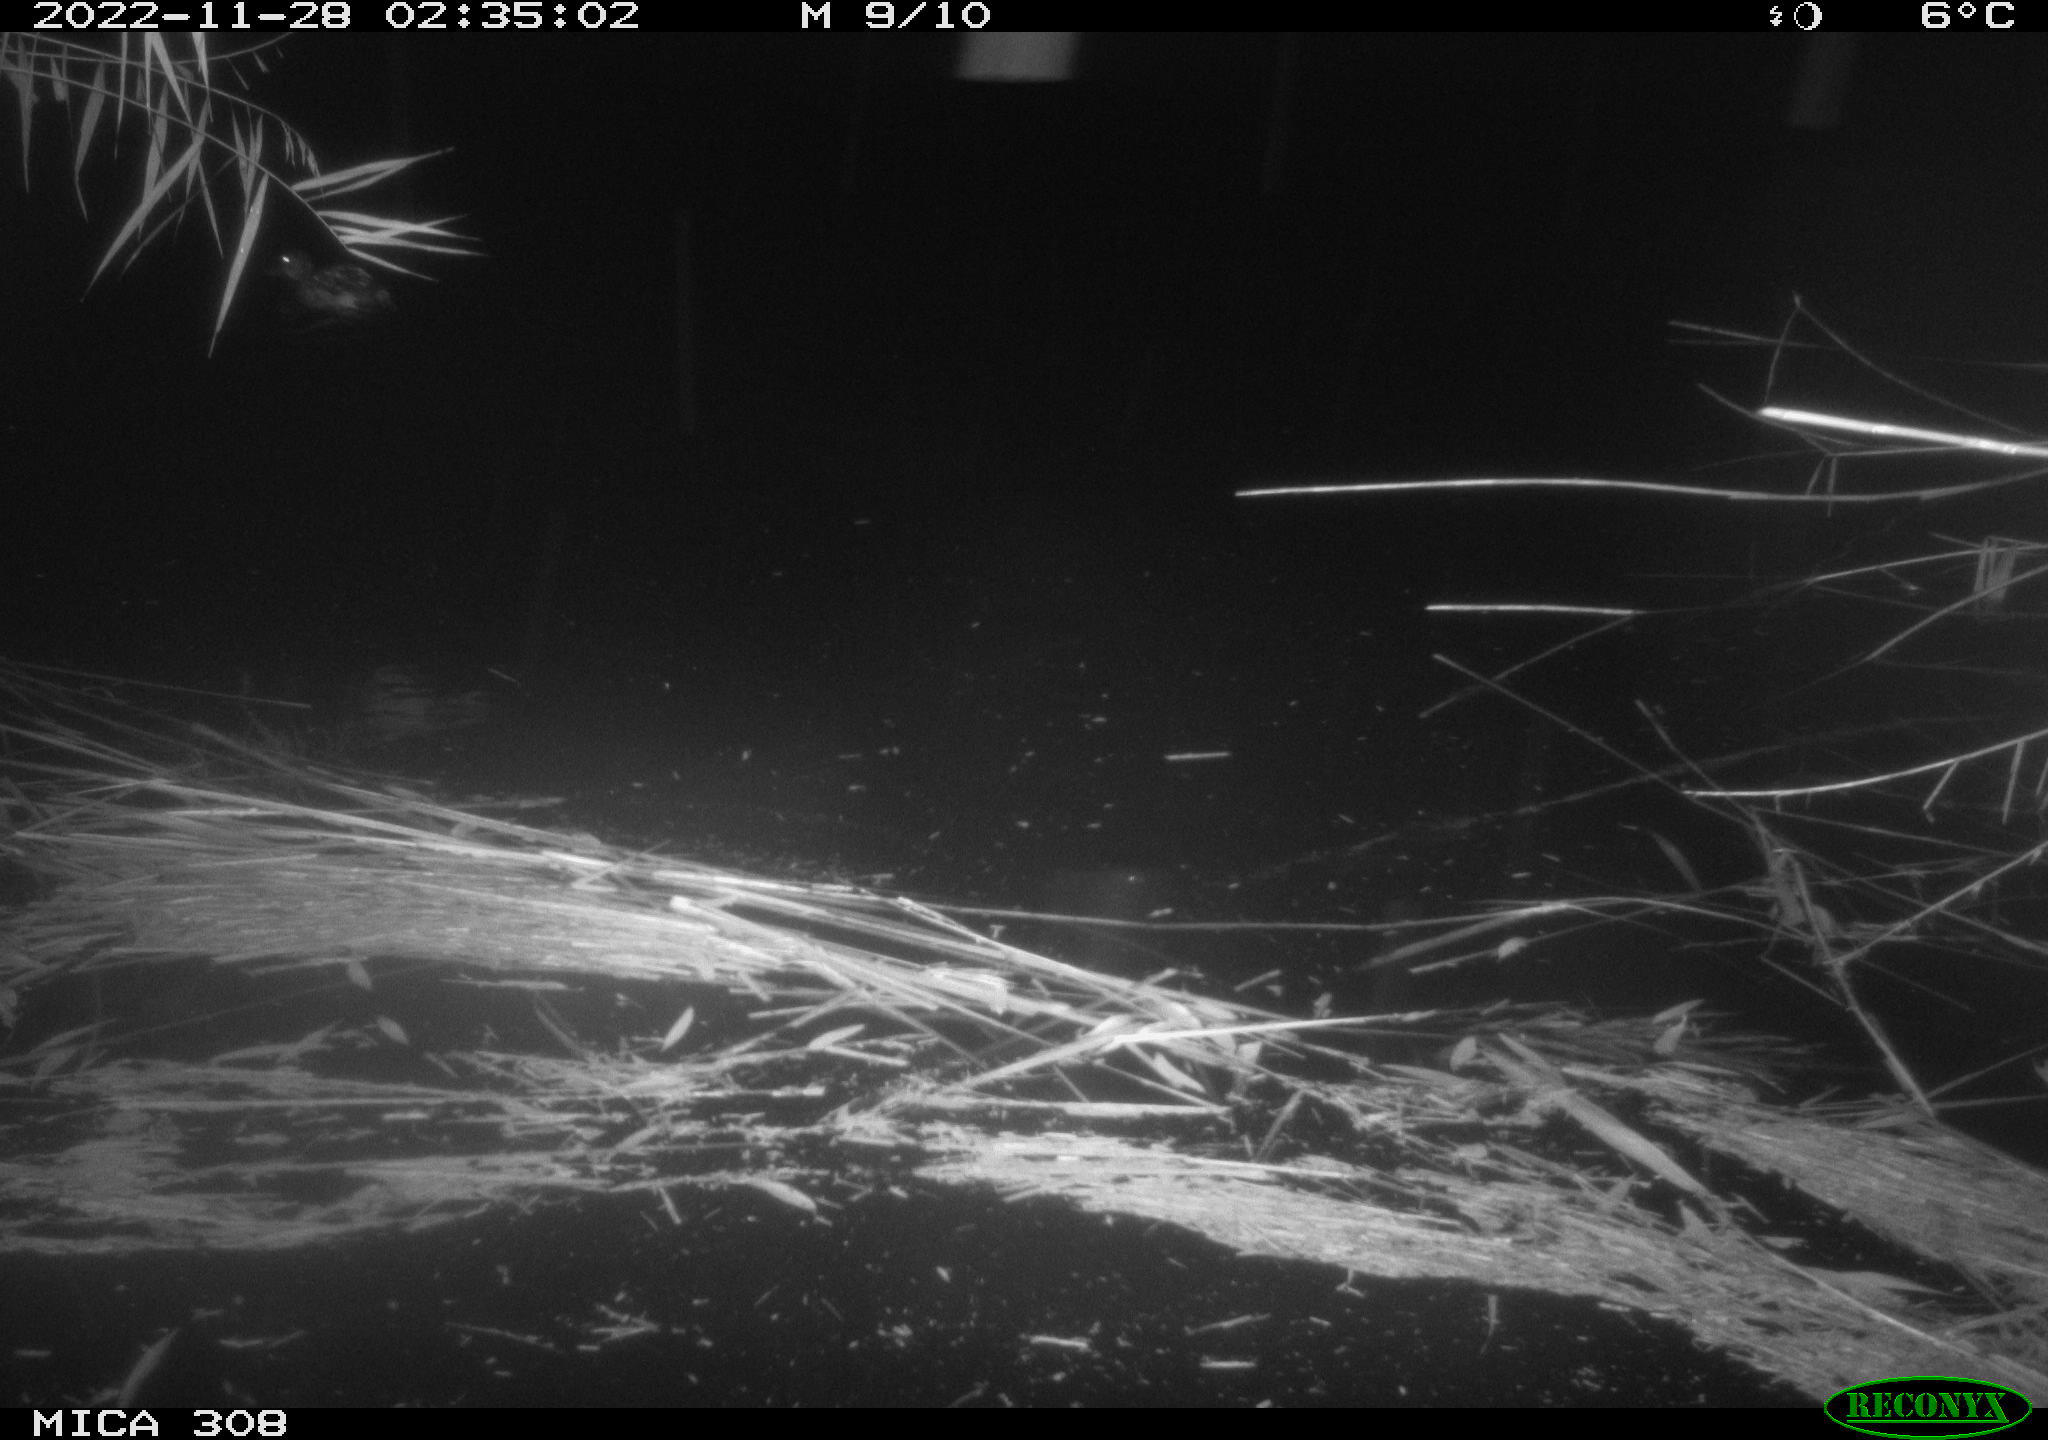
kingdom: Animalia
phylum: Chordata
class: Aves
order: Anseriformes
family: Anatidae
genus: Anas
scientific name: Anas
